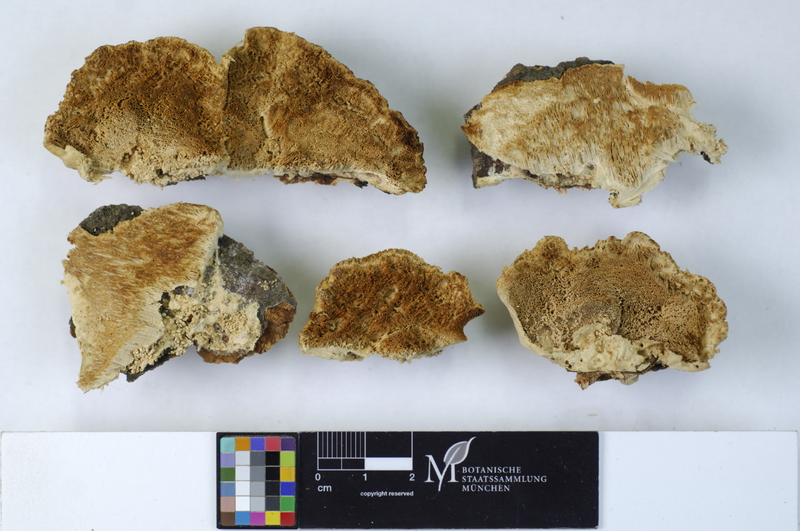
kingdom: Fungi
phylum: Basidiomycota
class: Agaricomycetes
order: Polyporales
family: Polyporaceae
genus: Trametes
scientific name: Trametes pubescens
